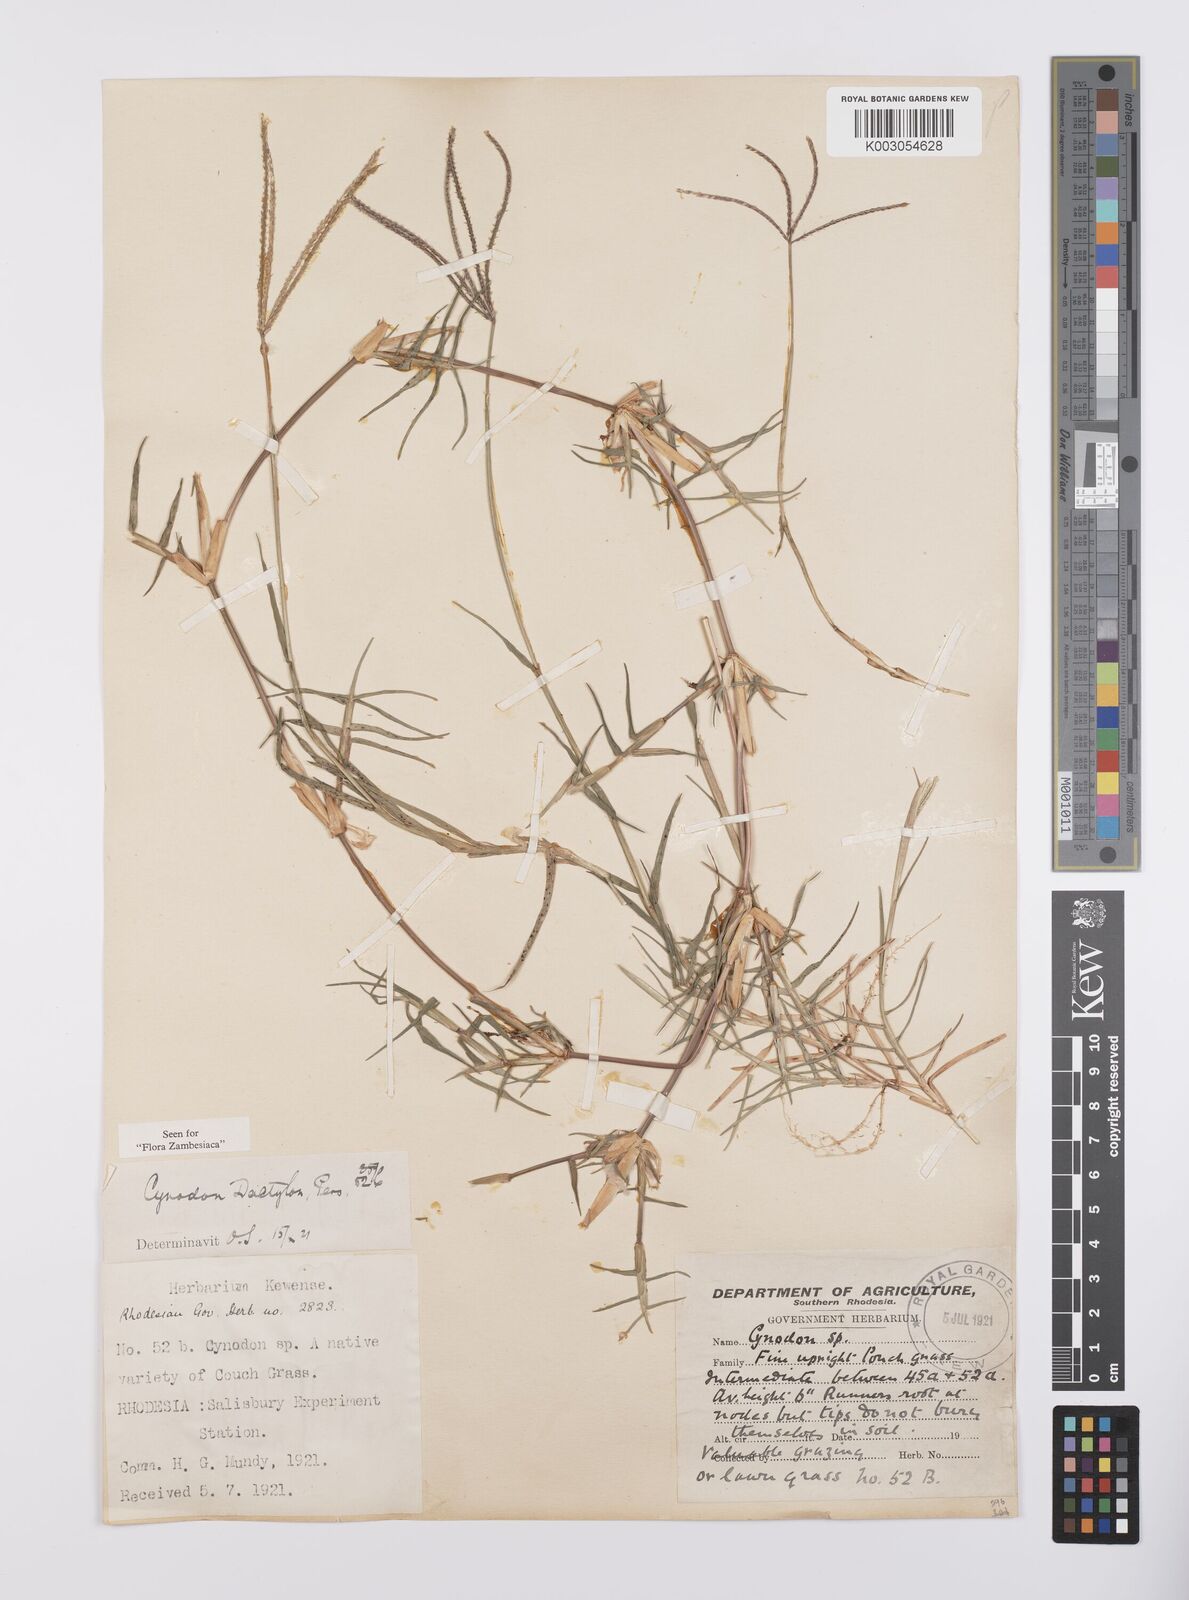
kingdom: Plantae
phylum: Tracheophyta
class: Liliopsida
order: Poales
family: Poaceae
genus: Cynodon
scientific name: Cynodon dactylon
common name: Bermuda grass
